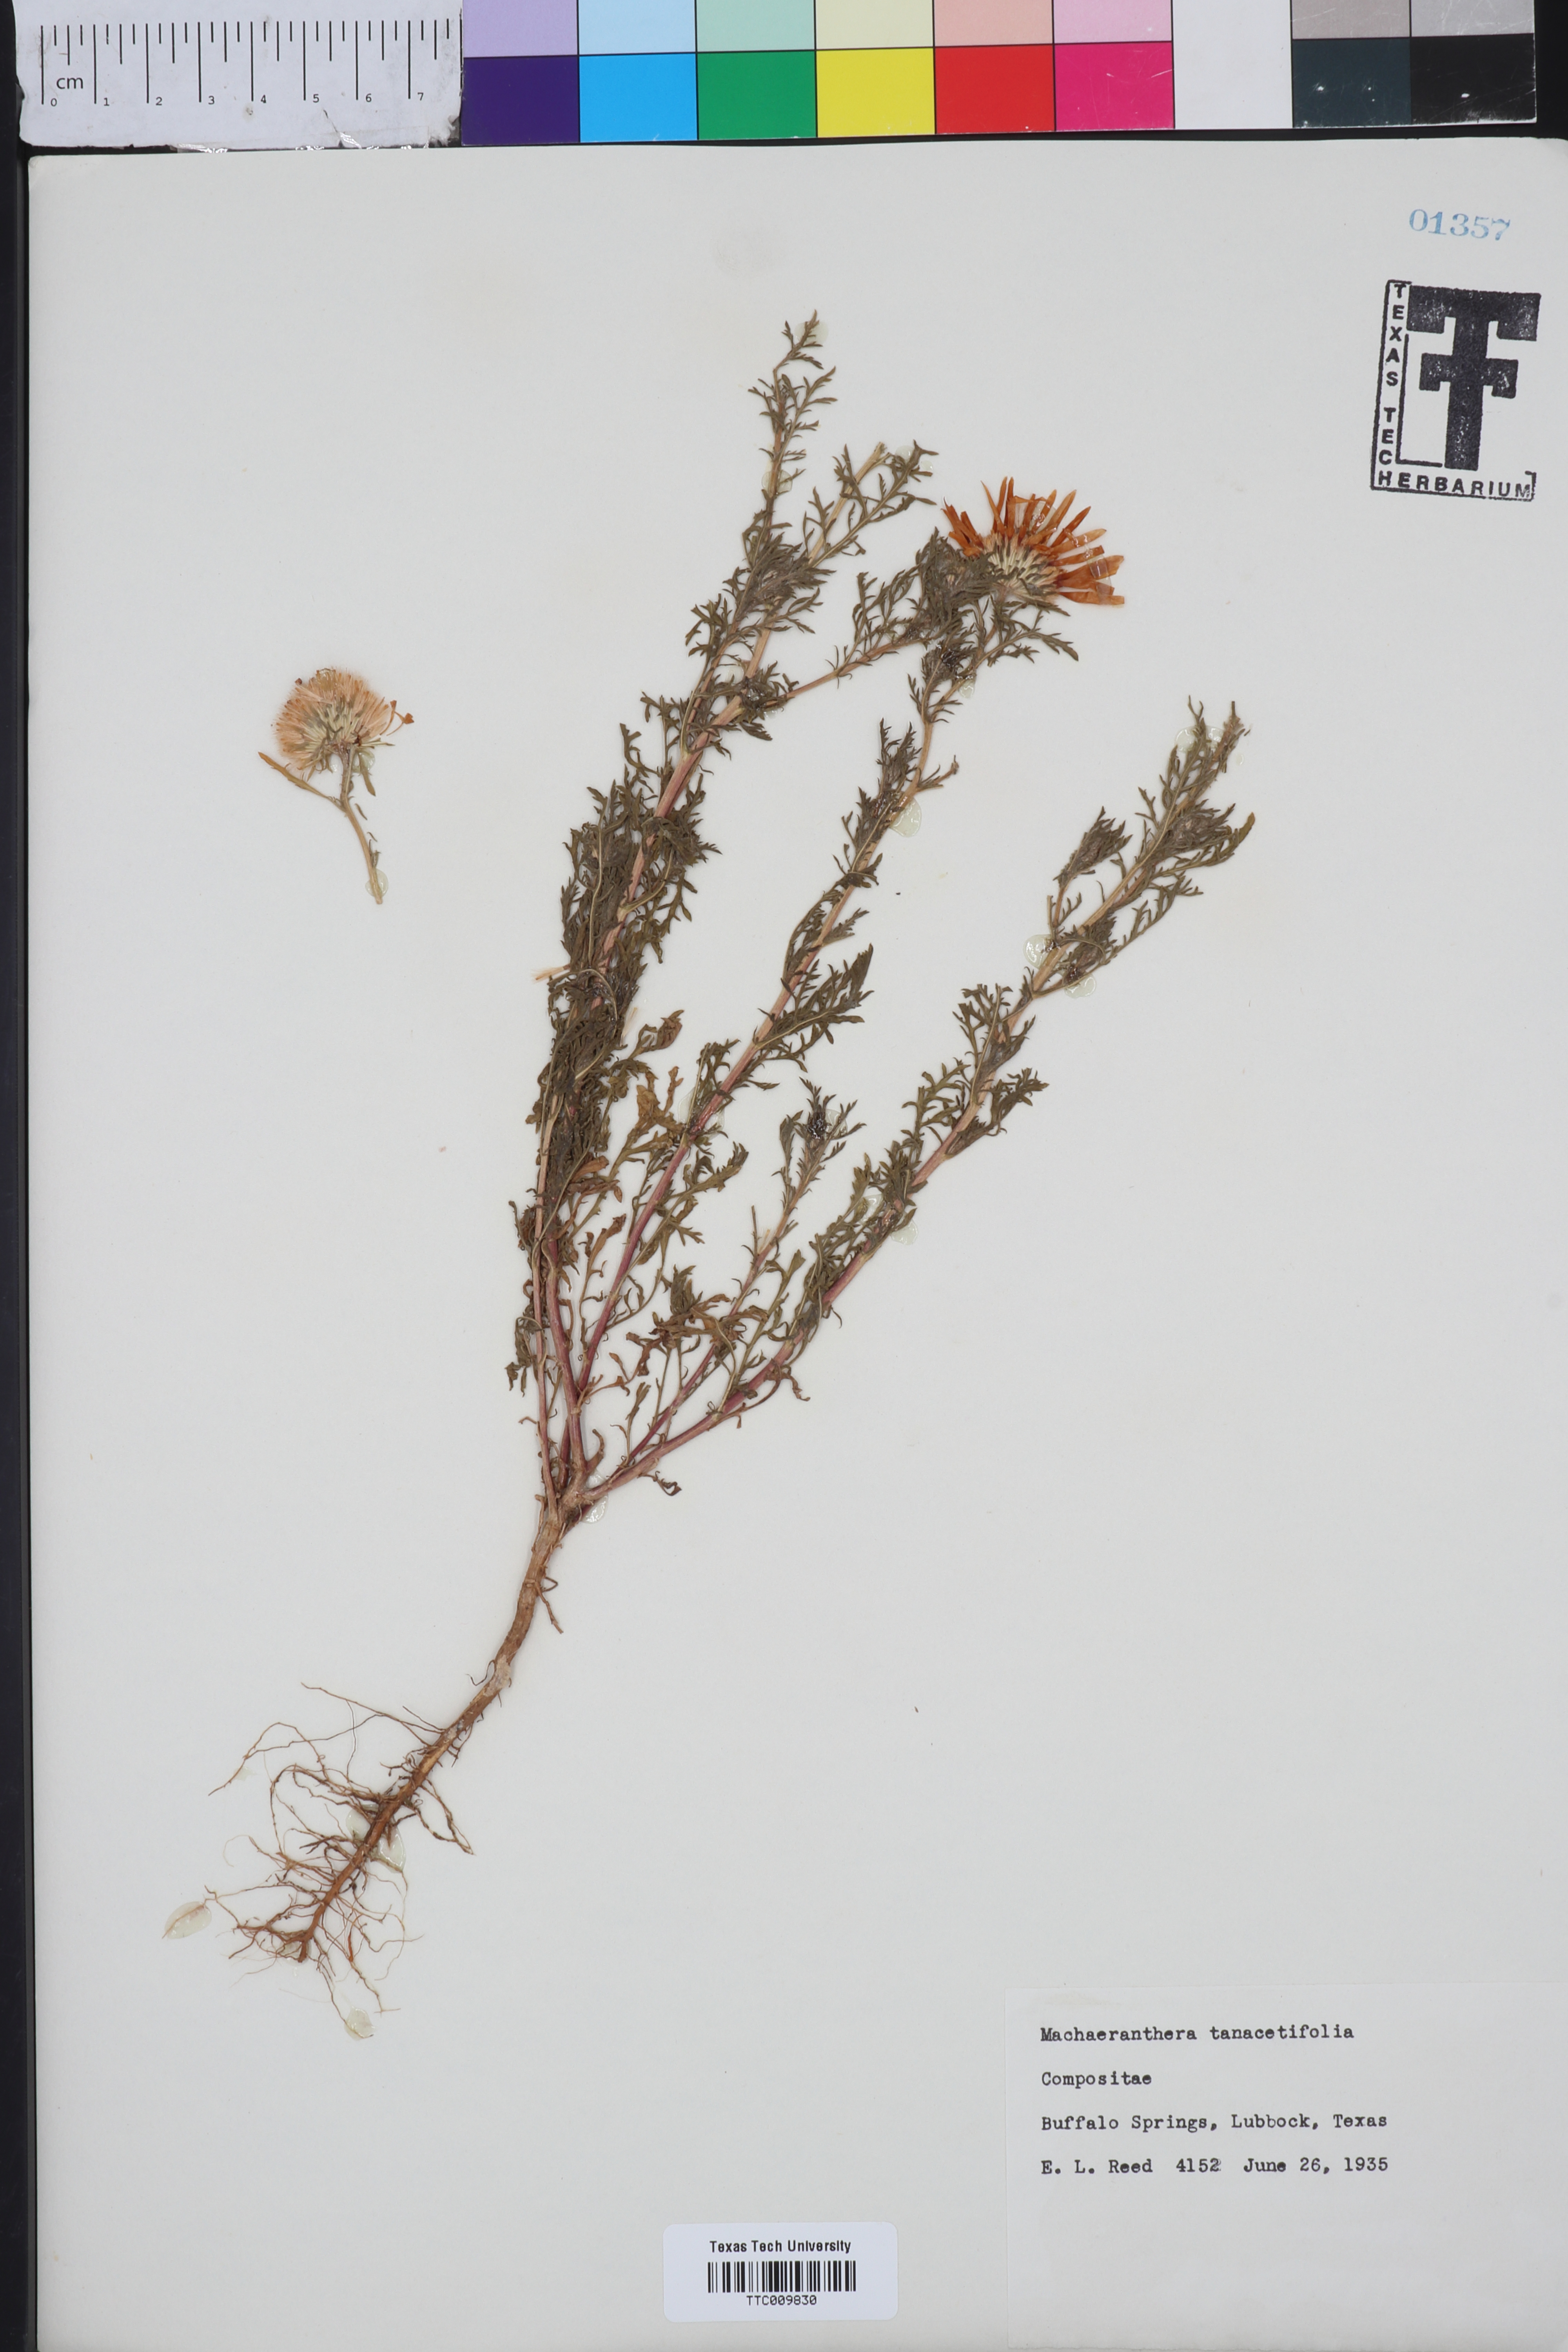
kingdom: Plantae
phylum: Tracheophyta
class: Magnoliopsida
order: Asterales
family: Asteraceae
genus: Machaeranthera
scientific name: Machaeranthera tanacetifolia
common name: Tansy-aster
